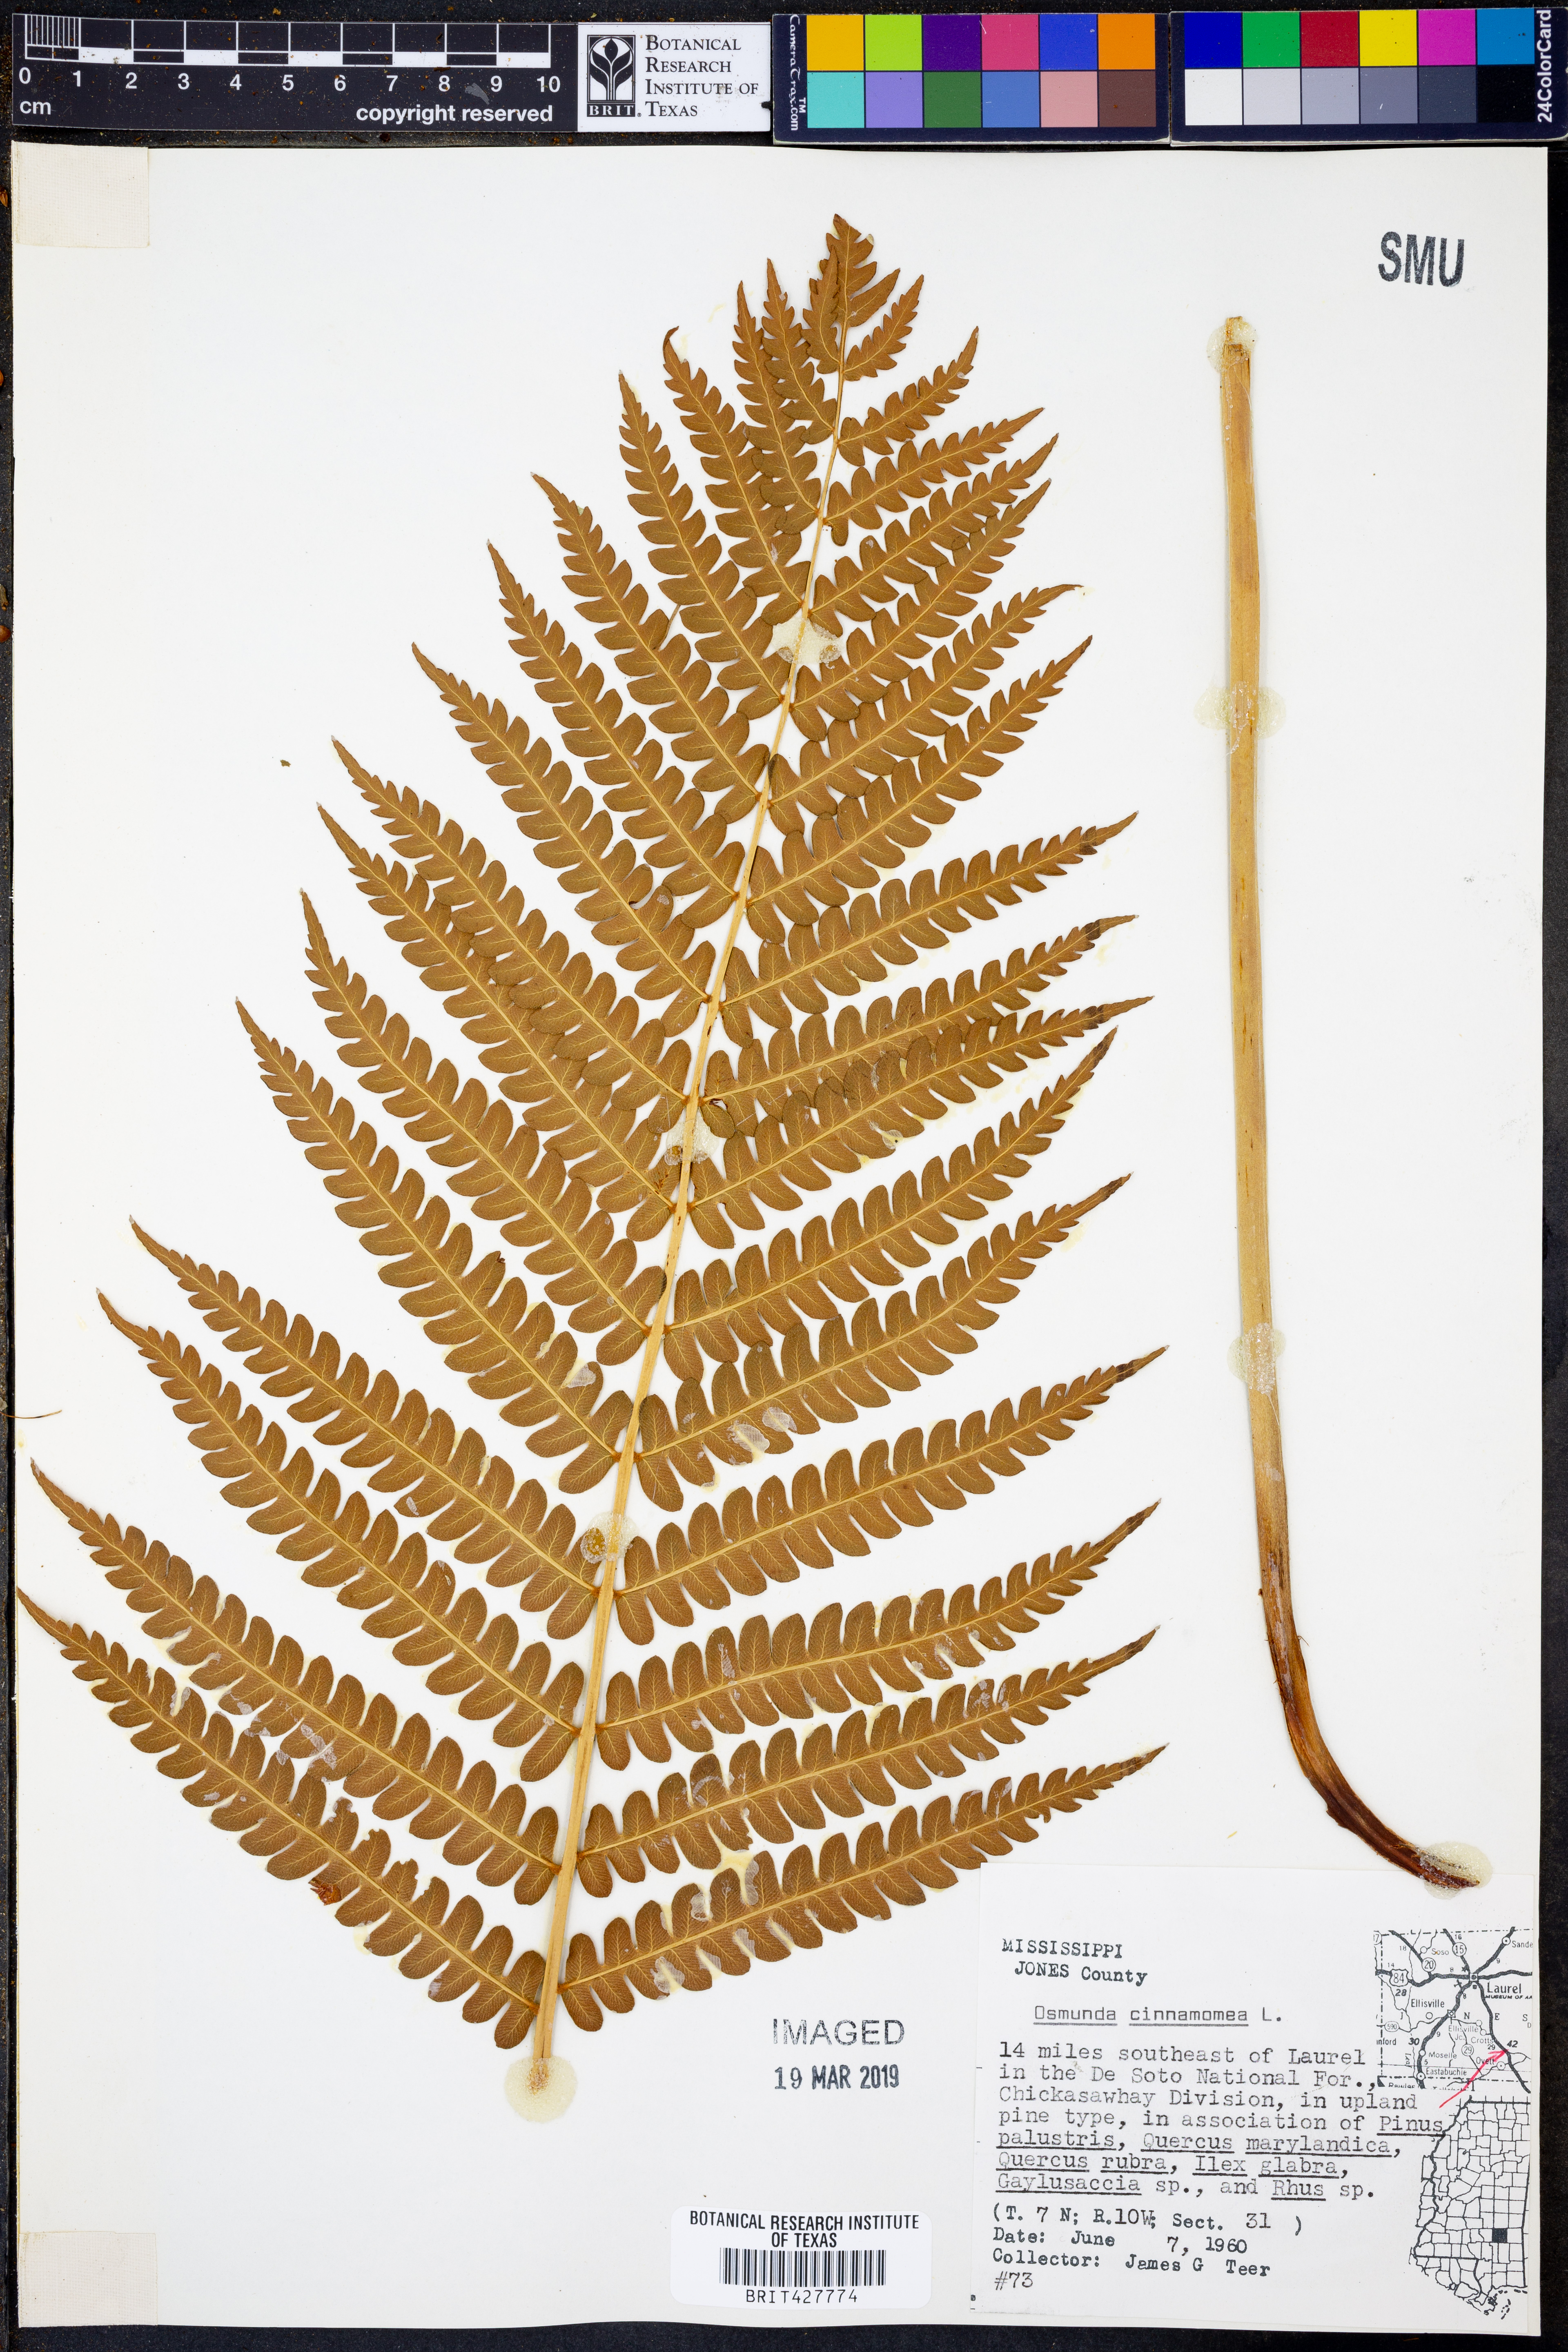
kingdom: Plantae
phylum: Tracheophyta
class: Polypodiopsida
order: Osmundales
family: Osmundaceae
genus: Osmundastrum
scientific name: Osmundastrum cinnamomeum
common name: Cinnamon fern
